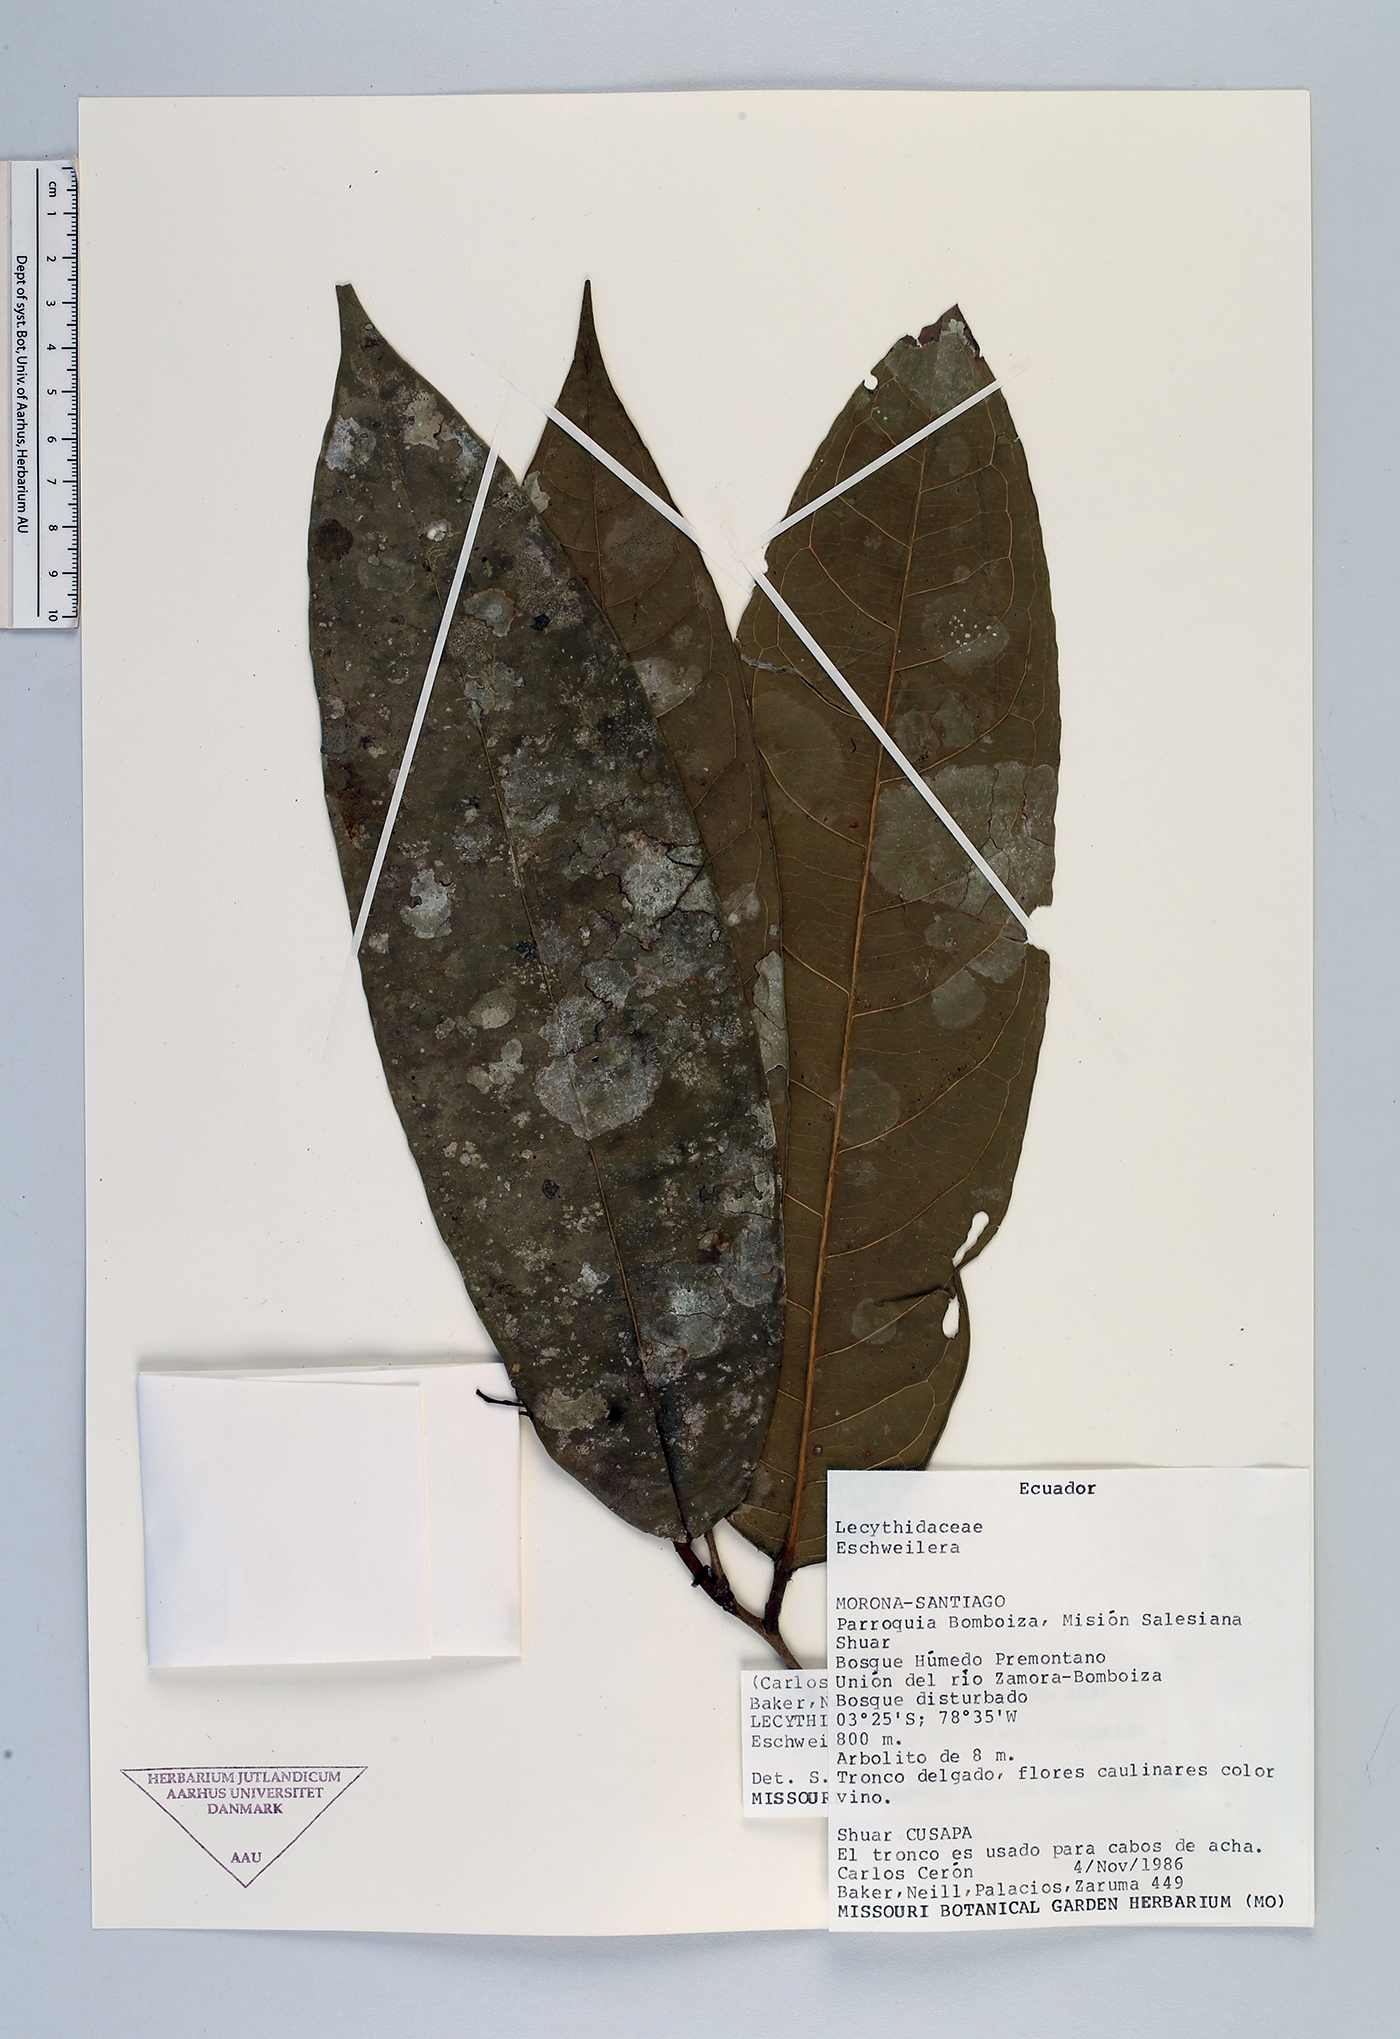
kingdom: Plantae
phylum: Tracheophyta
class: Magnoliopsida
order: Ericales
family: Lecythidaceae
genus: Eschweilera
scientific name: Eschweilera andina
